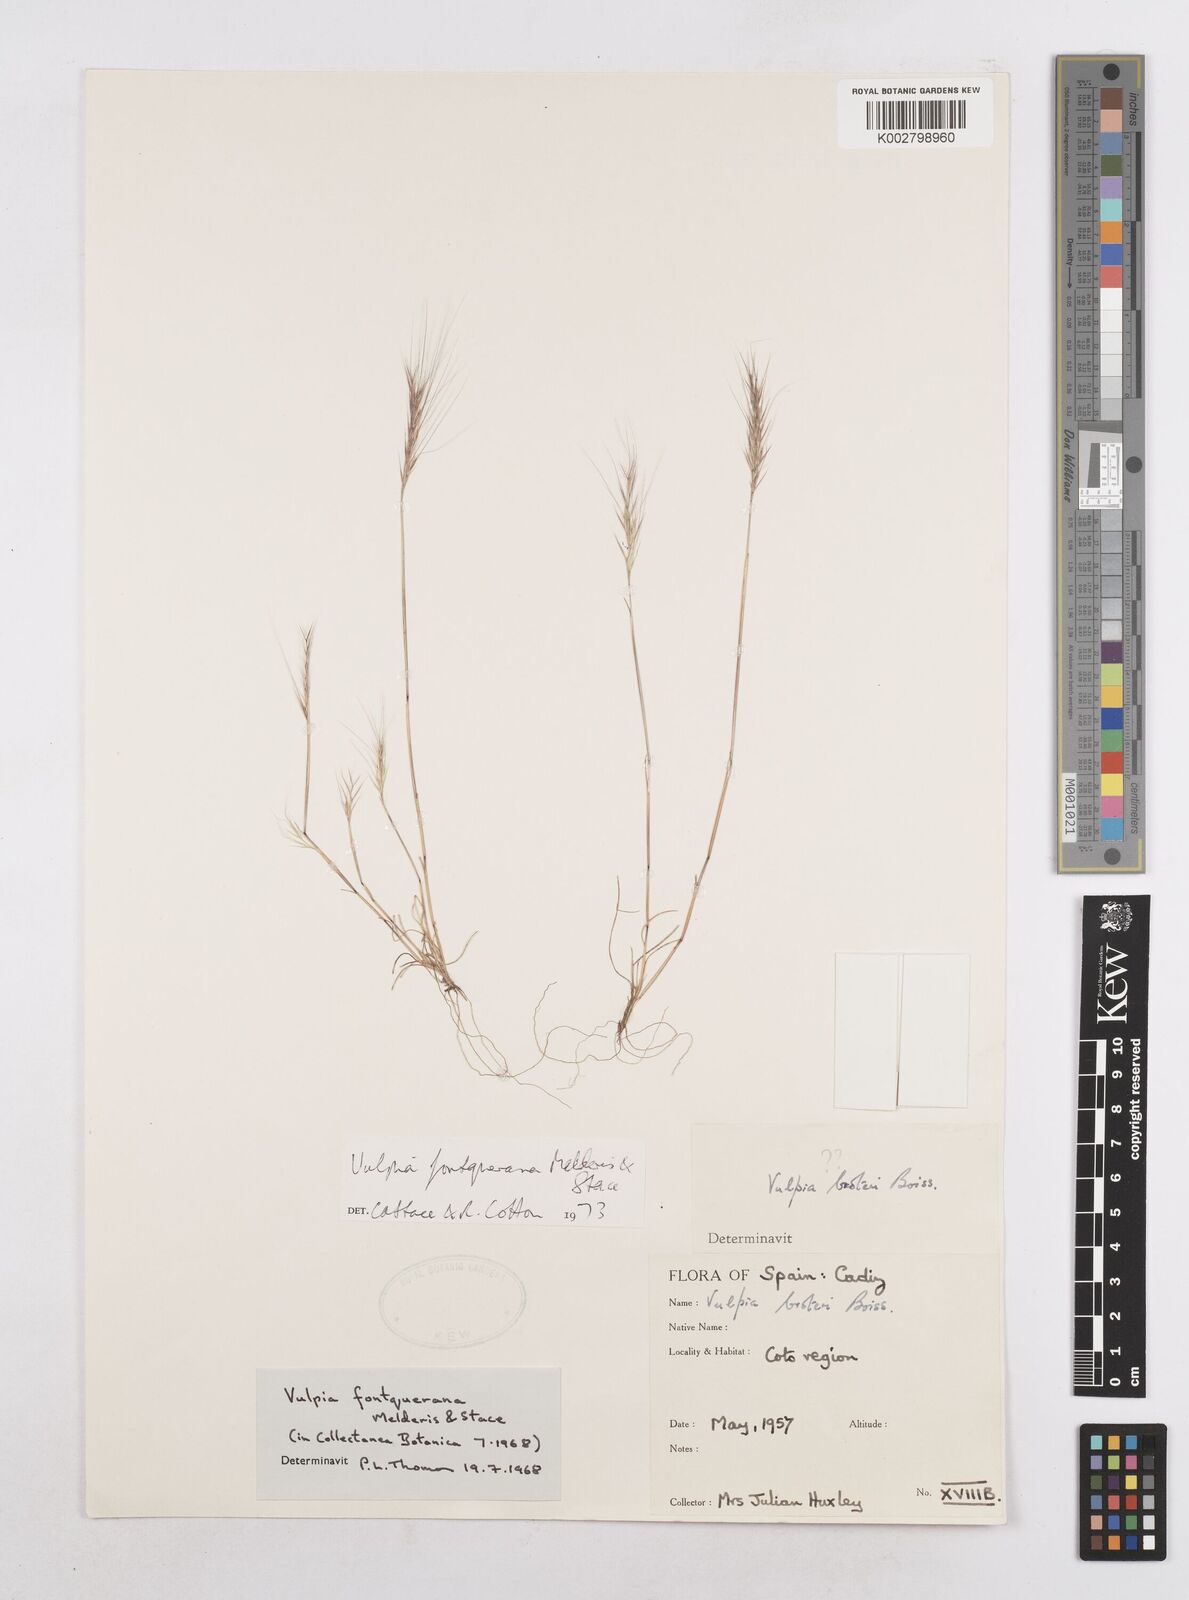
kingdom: Plantae
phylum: Tracheophyta
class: Liliopsida
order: Poales
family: Poaceae
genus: Festuca
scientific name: Festuca Vulpia fontqueriana
